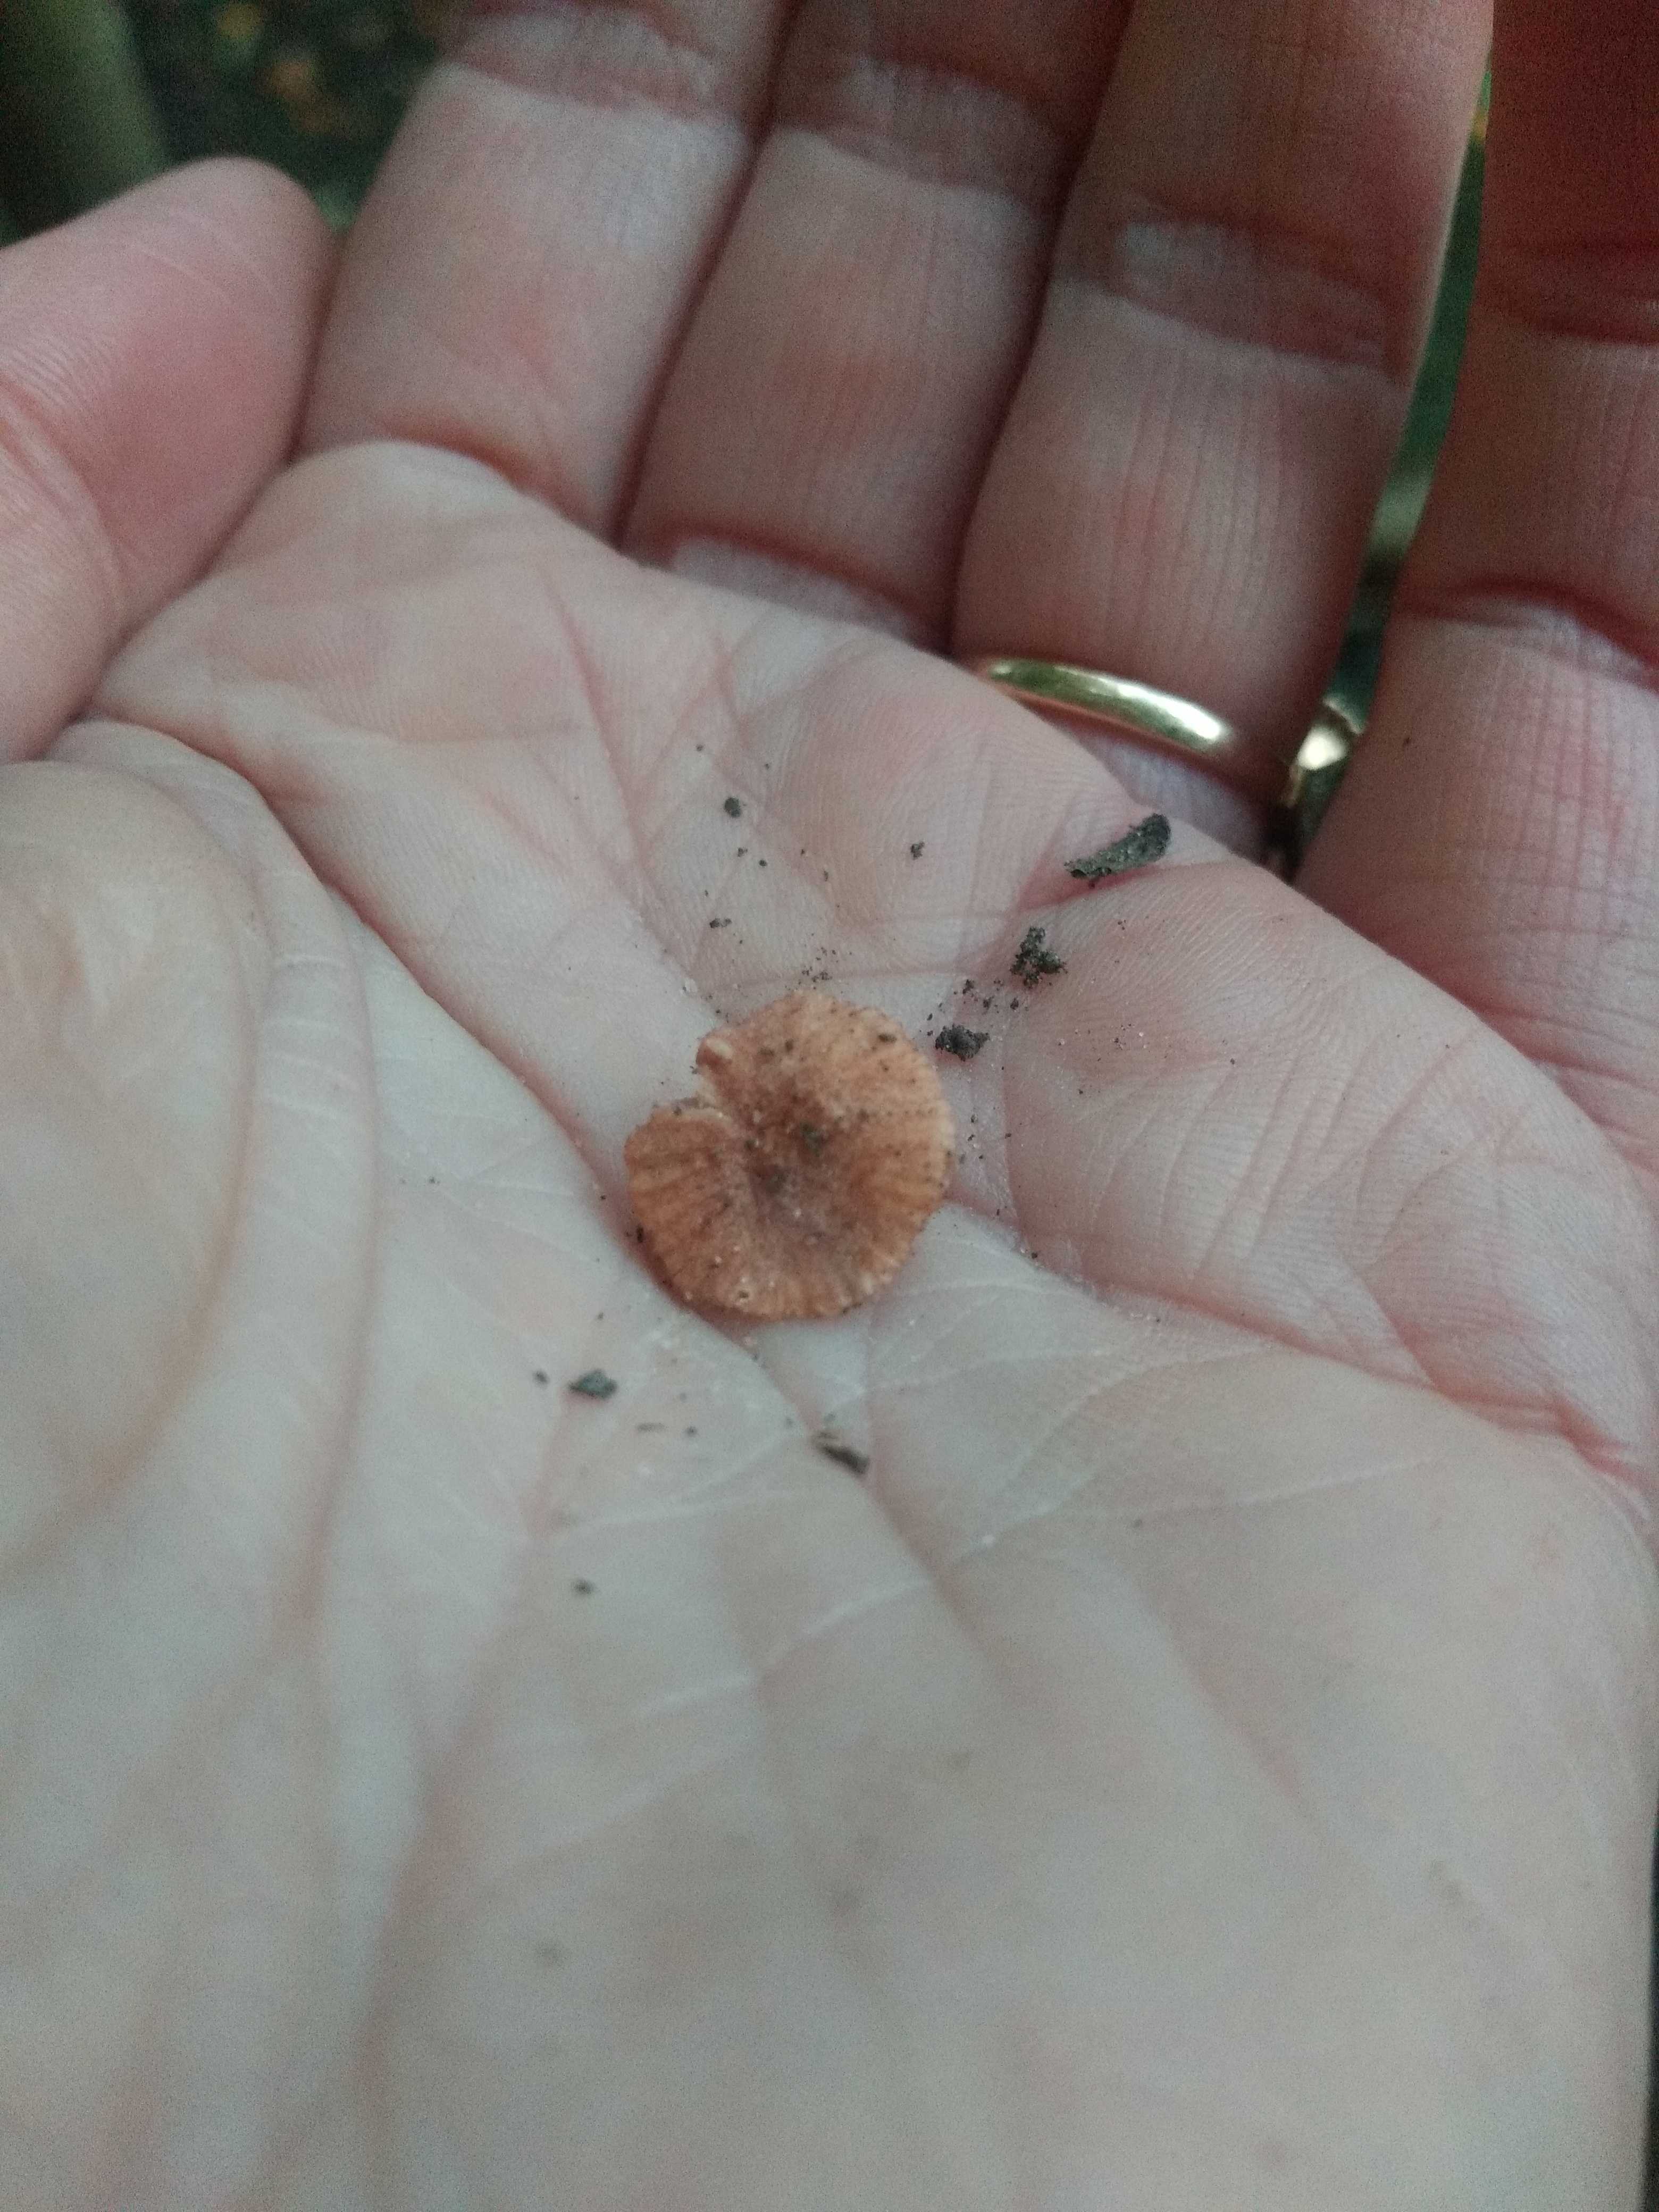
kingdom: Fungi
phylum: Basidiomycota
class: Agaricomycetes
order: Agaricales
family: Hydnangiaceae
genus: Laccaria
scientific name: Laccaria tortilis
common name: krybende ametysthat
